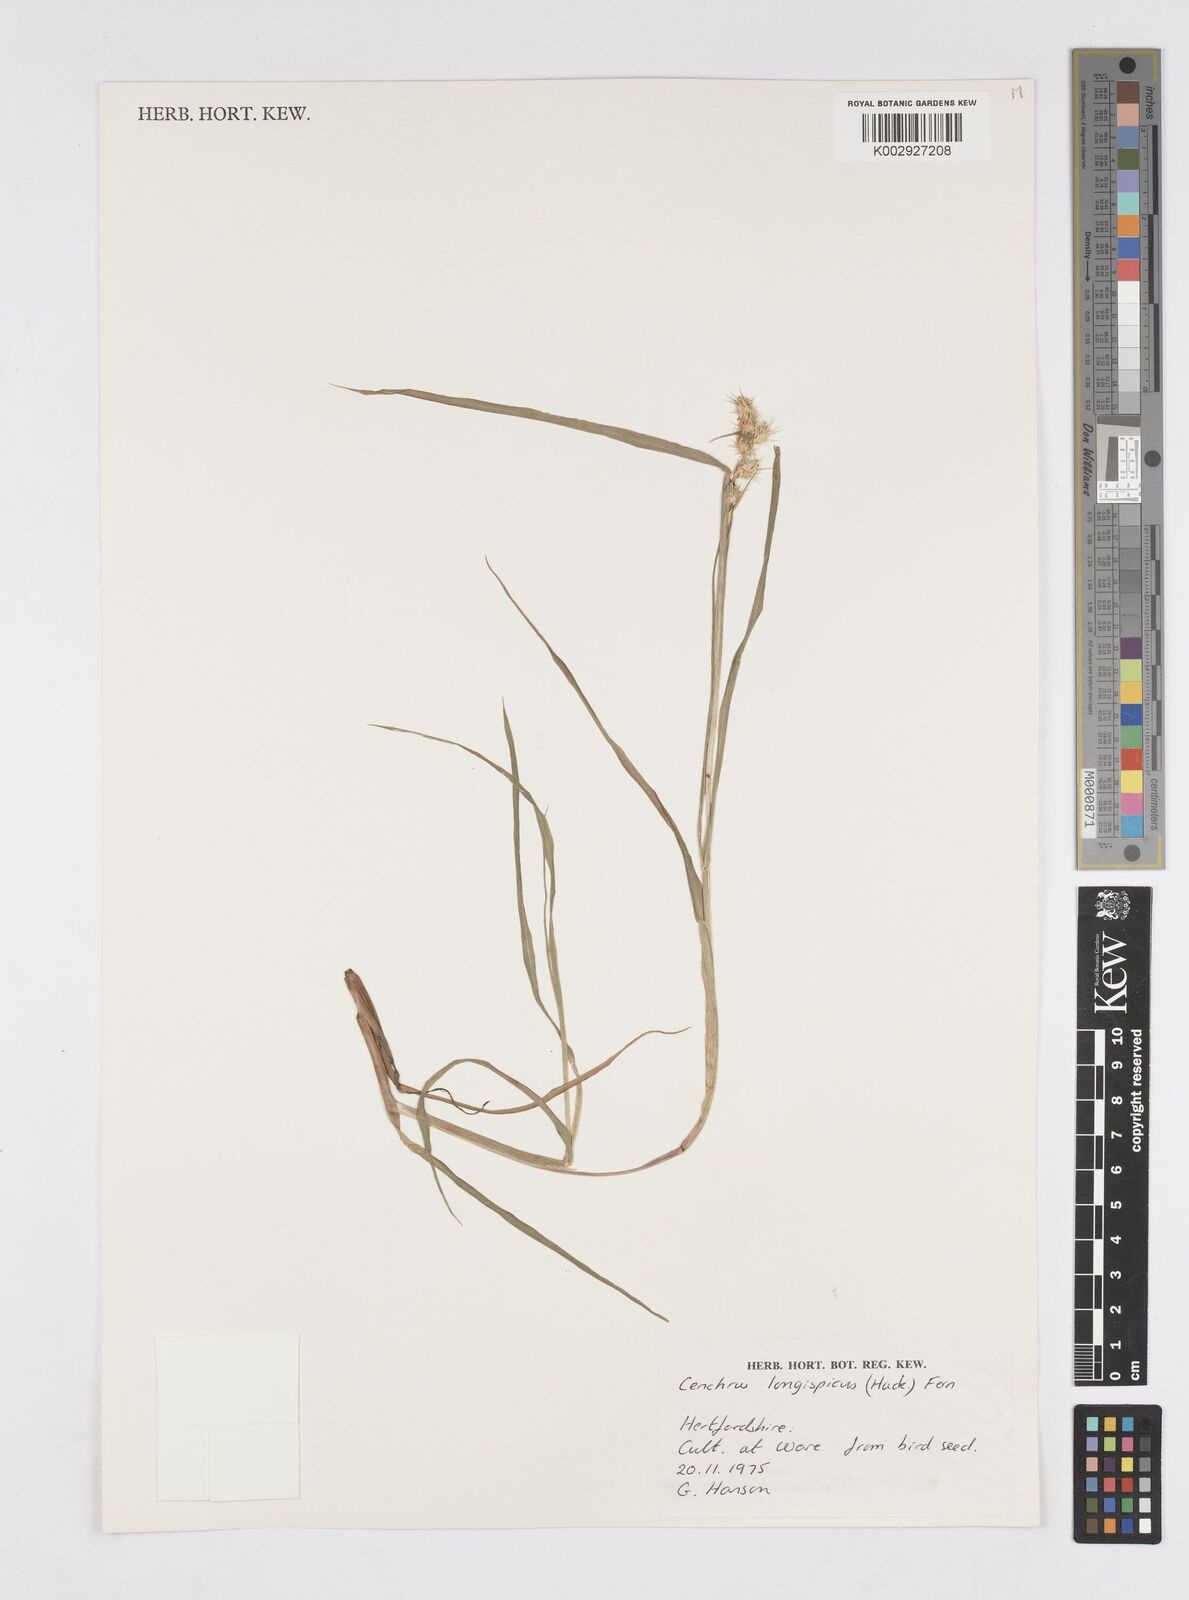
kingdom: Plantae
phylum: Tracheophyta
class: Liliopsida
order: Poales
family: Poaceae
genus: Cenchrus
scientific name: Cenchrus longispinus
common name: Mat sandbur
